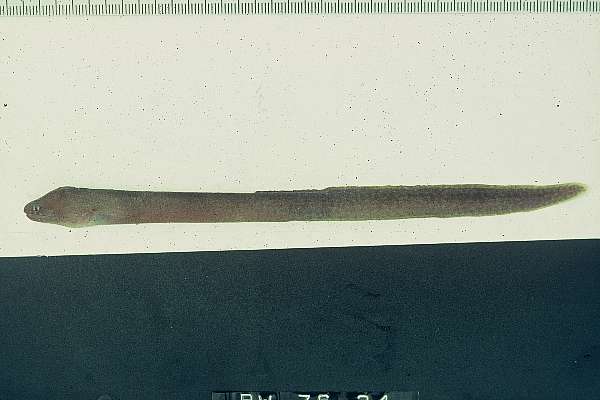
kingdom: Animalia
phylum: Chordata
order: Anguilliformes
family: Muraenidae
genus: Uropterygius
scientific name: Uropterygius
